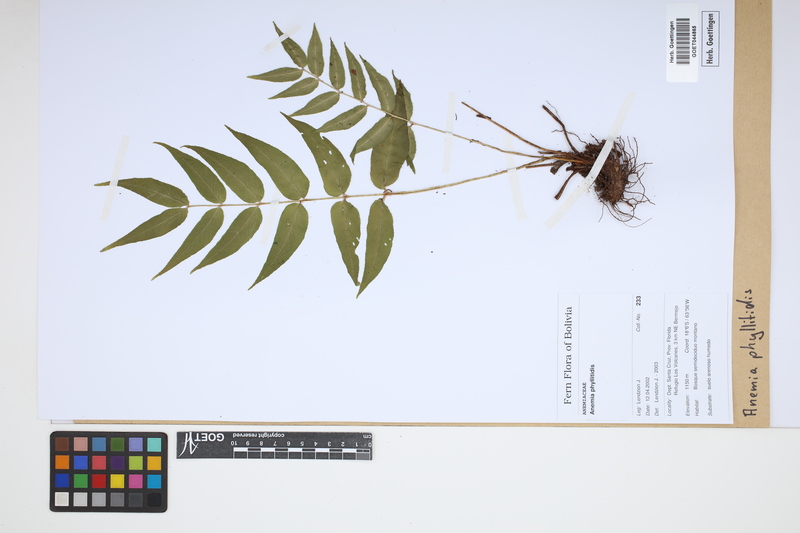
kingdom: Plantae
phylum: Tracheophyta
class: Polypodiopsida
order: Schizaeales
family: Anemiaceae
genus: Anemia
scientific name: Anemia phyllitidis
